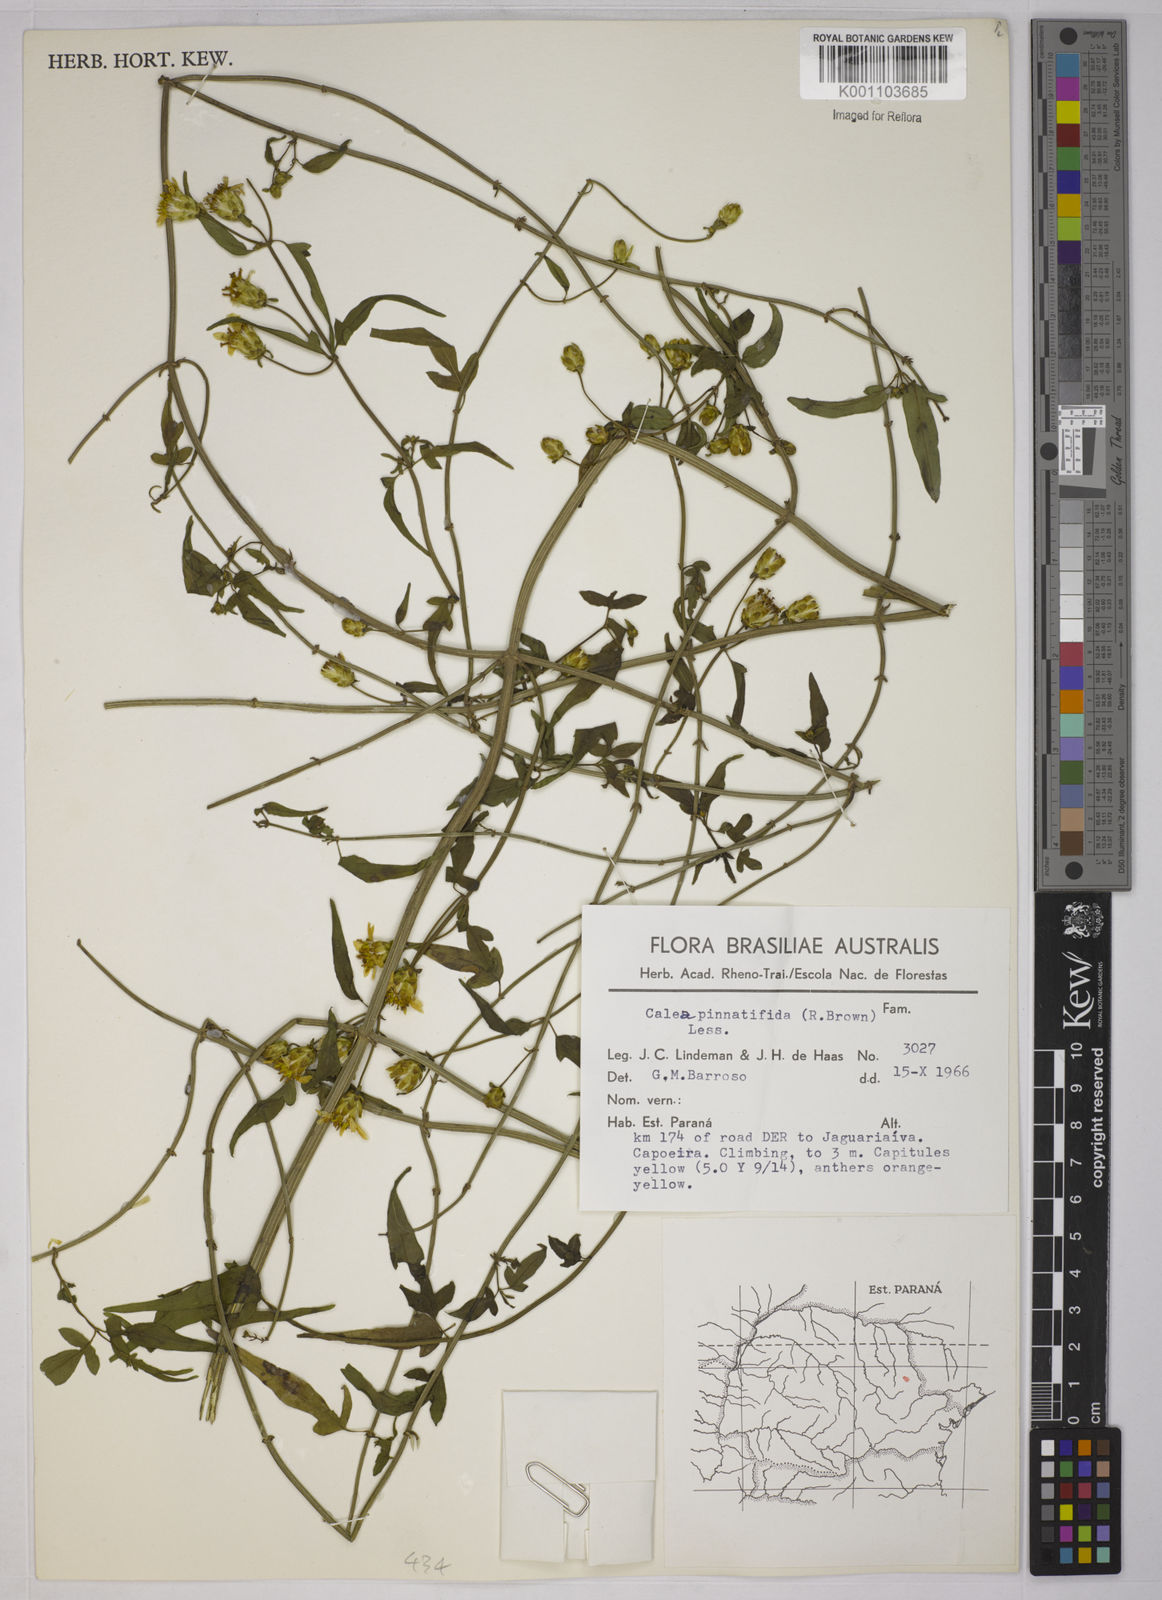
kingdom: Plantae
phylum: Tracheophyta
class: Magnoliopsida
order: Asterales
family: Asteraceae
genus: Calea
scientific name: Calea
